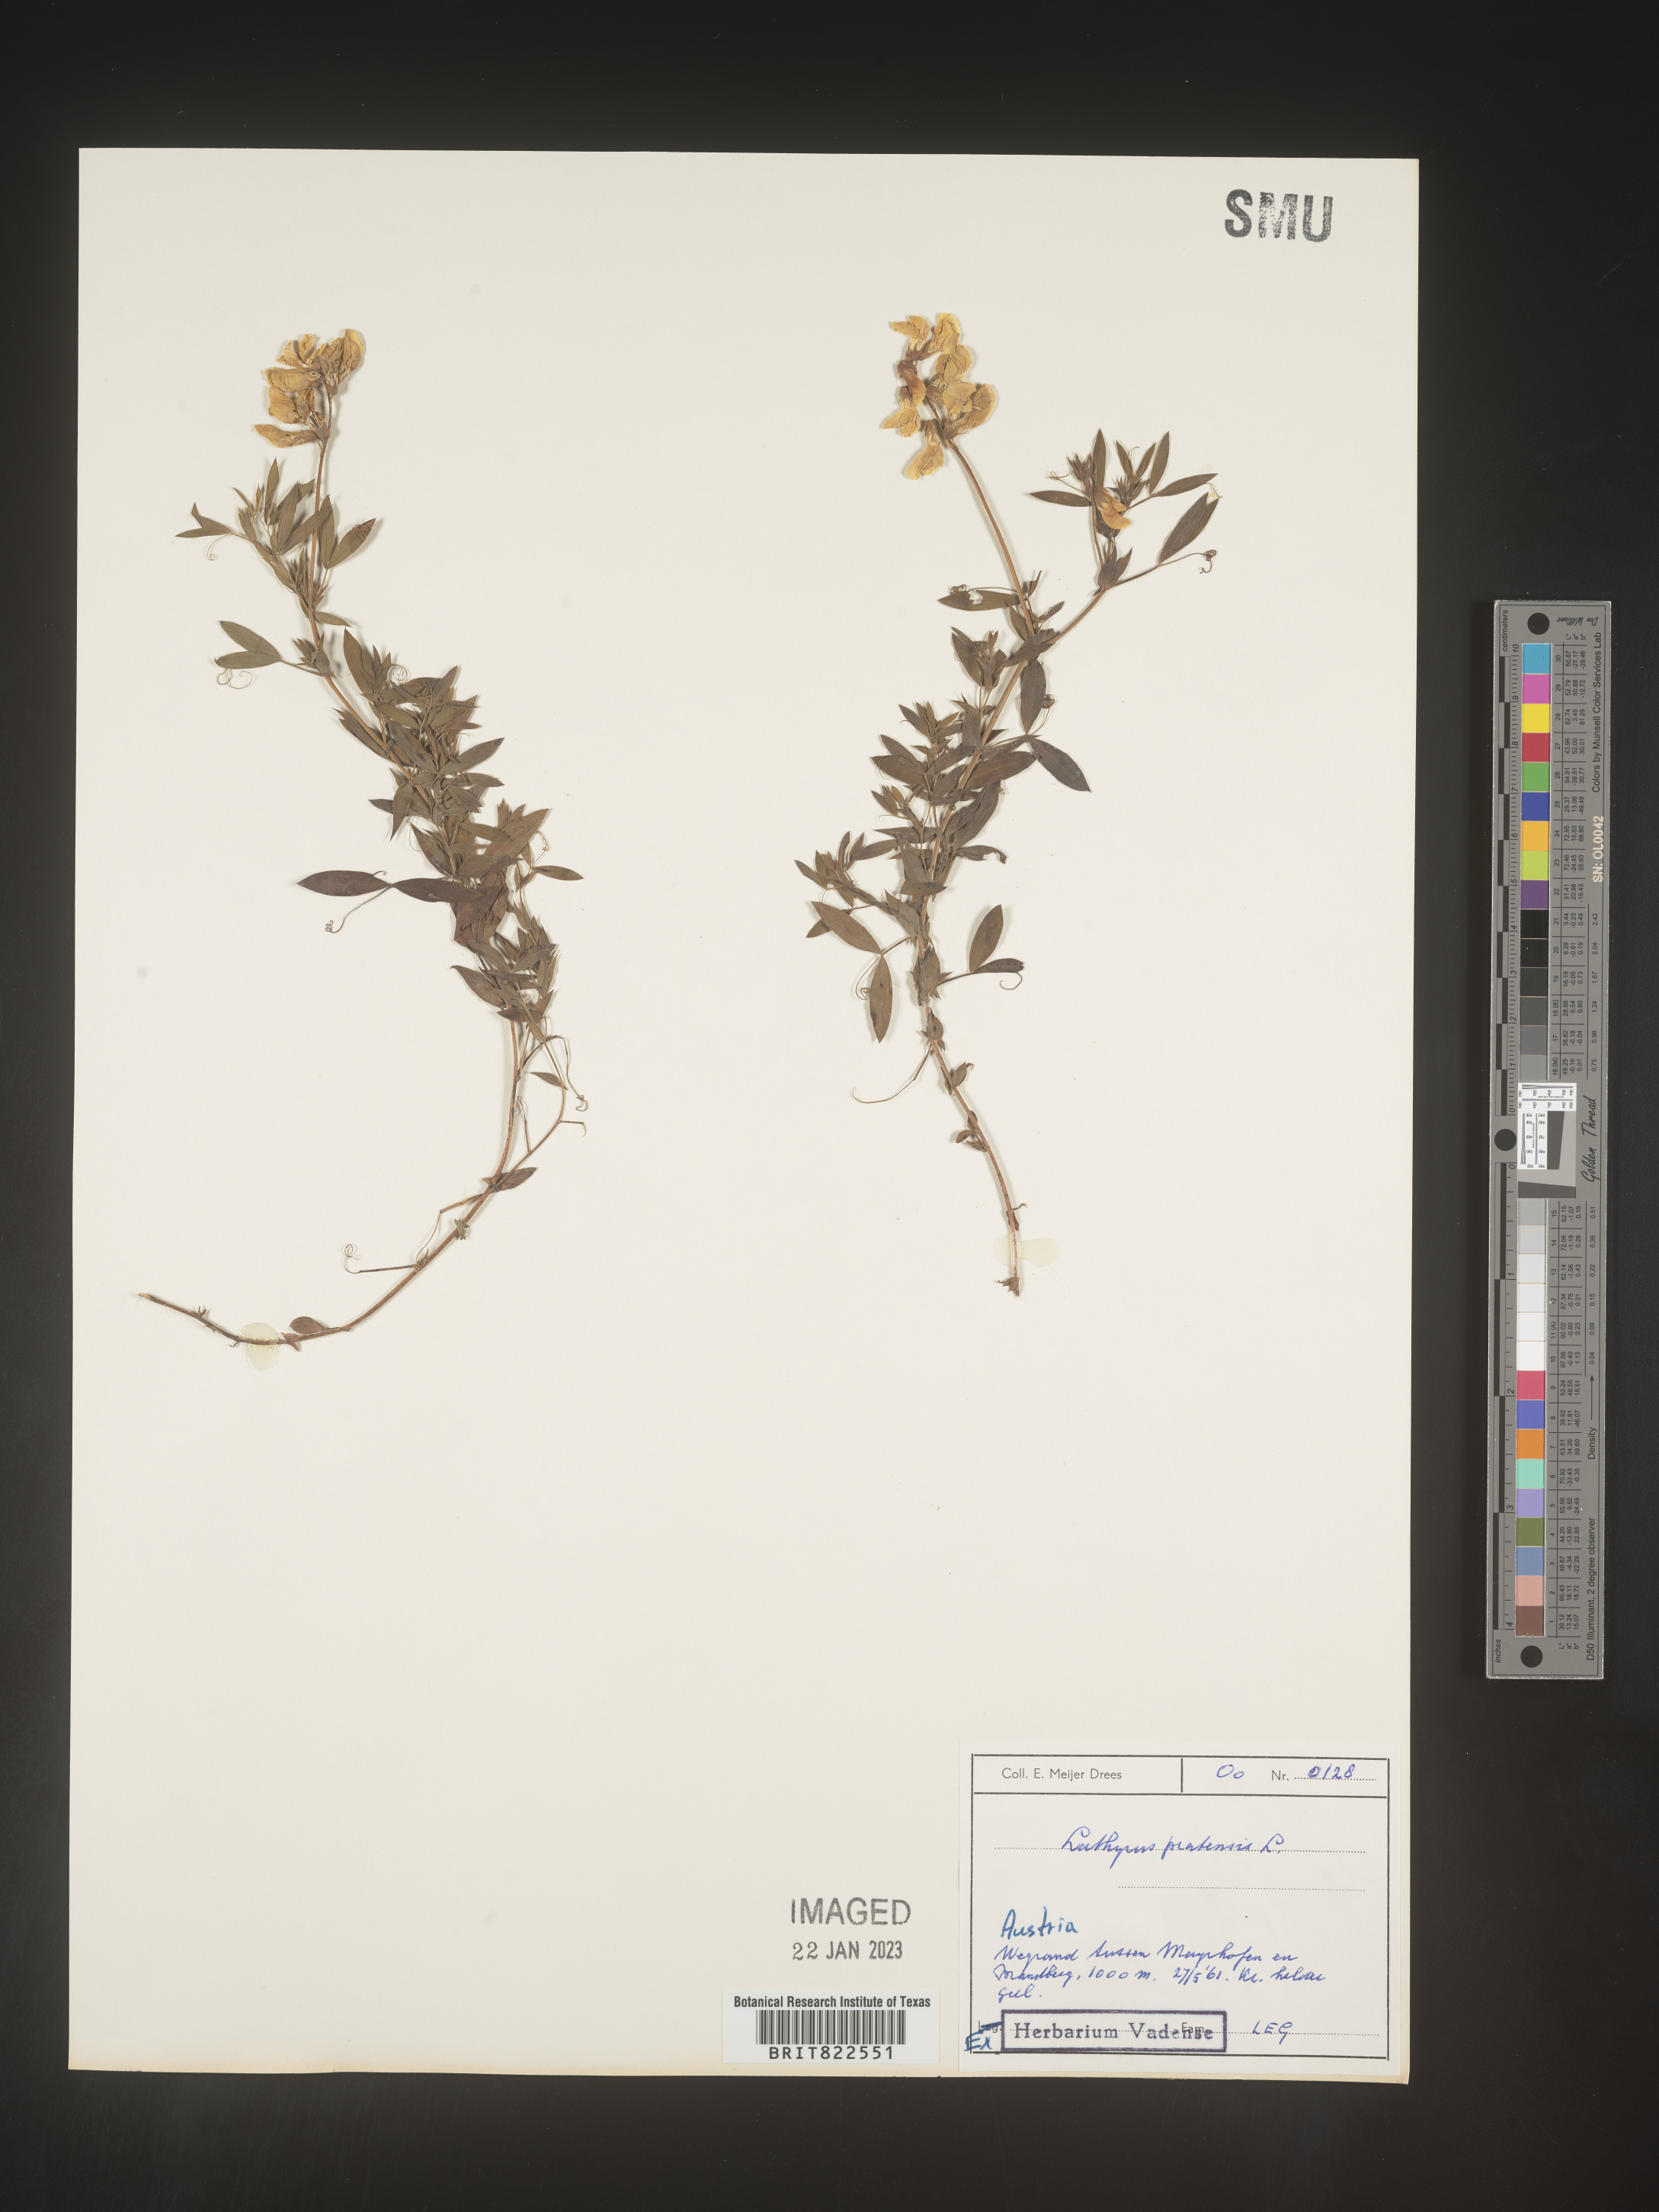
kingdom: Plantae
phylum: Tracheophyta
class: Magnoliopsida
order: Fabales
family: Fabaceae
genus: Lathyrus
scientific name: Lathyrus
